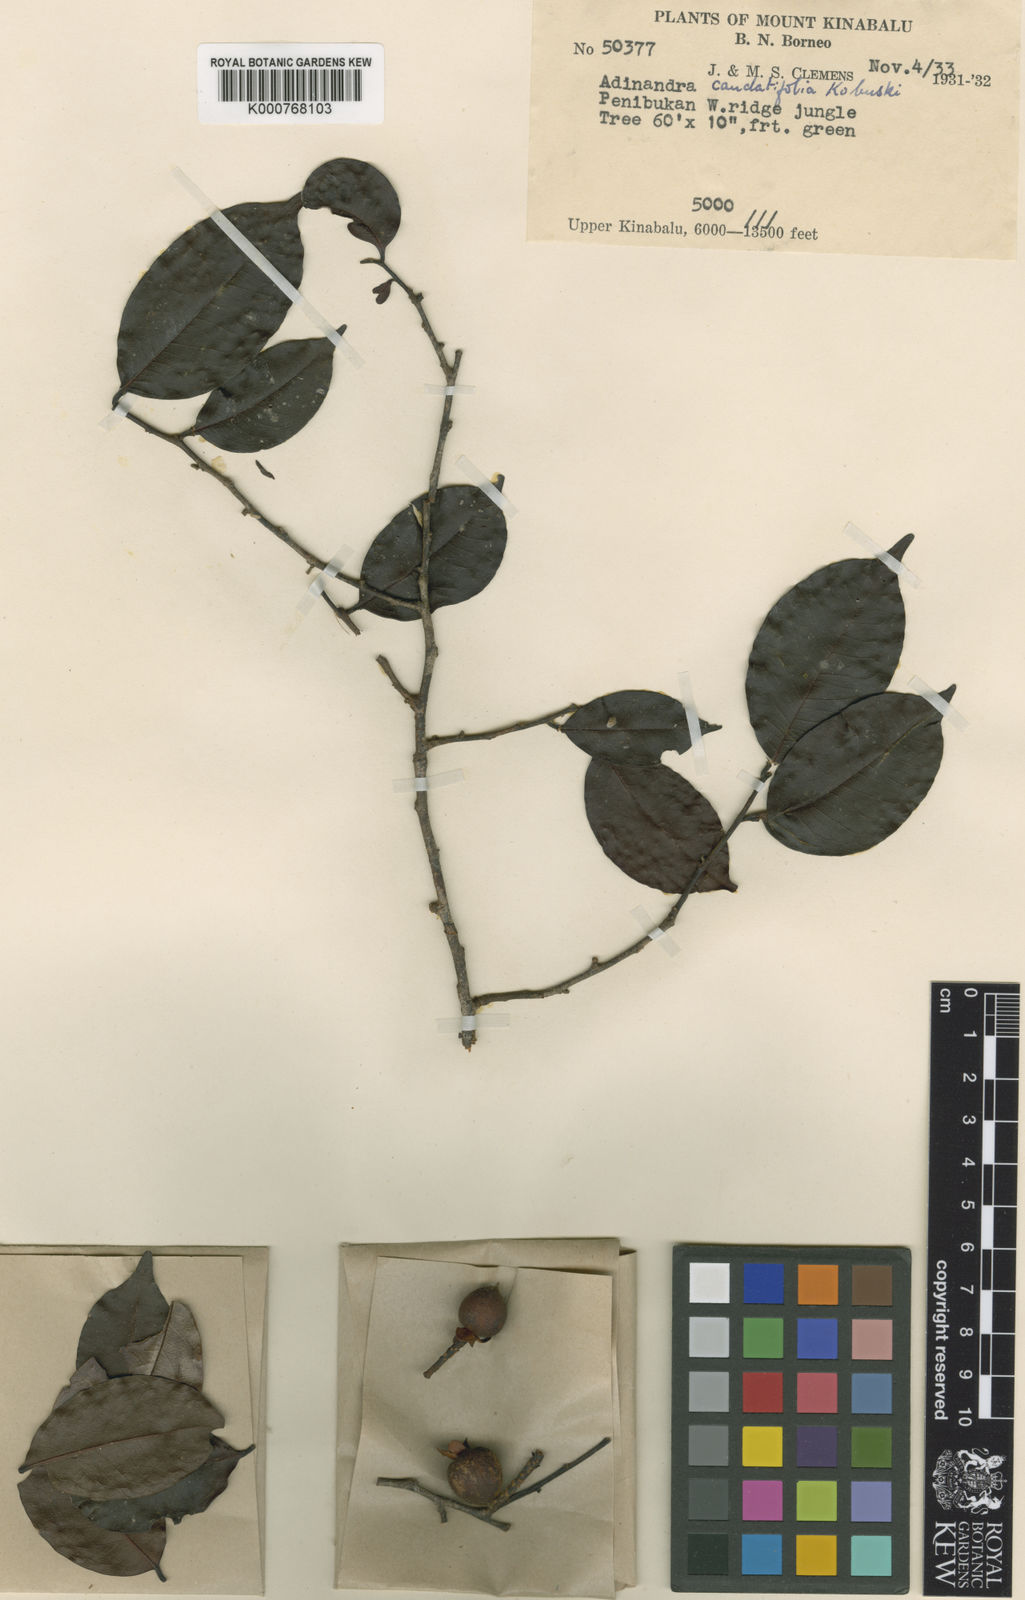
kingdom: Plantae
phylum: Tracheophyta
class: Magnoliopsida
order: Ericales
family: Pentaphylacaceae
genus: Adinandra
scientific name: Adinandra acuminata
